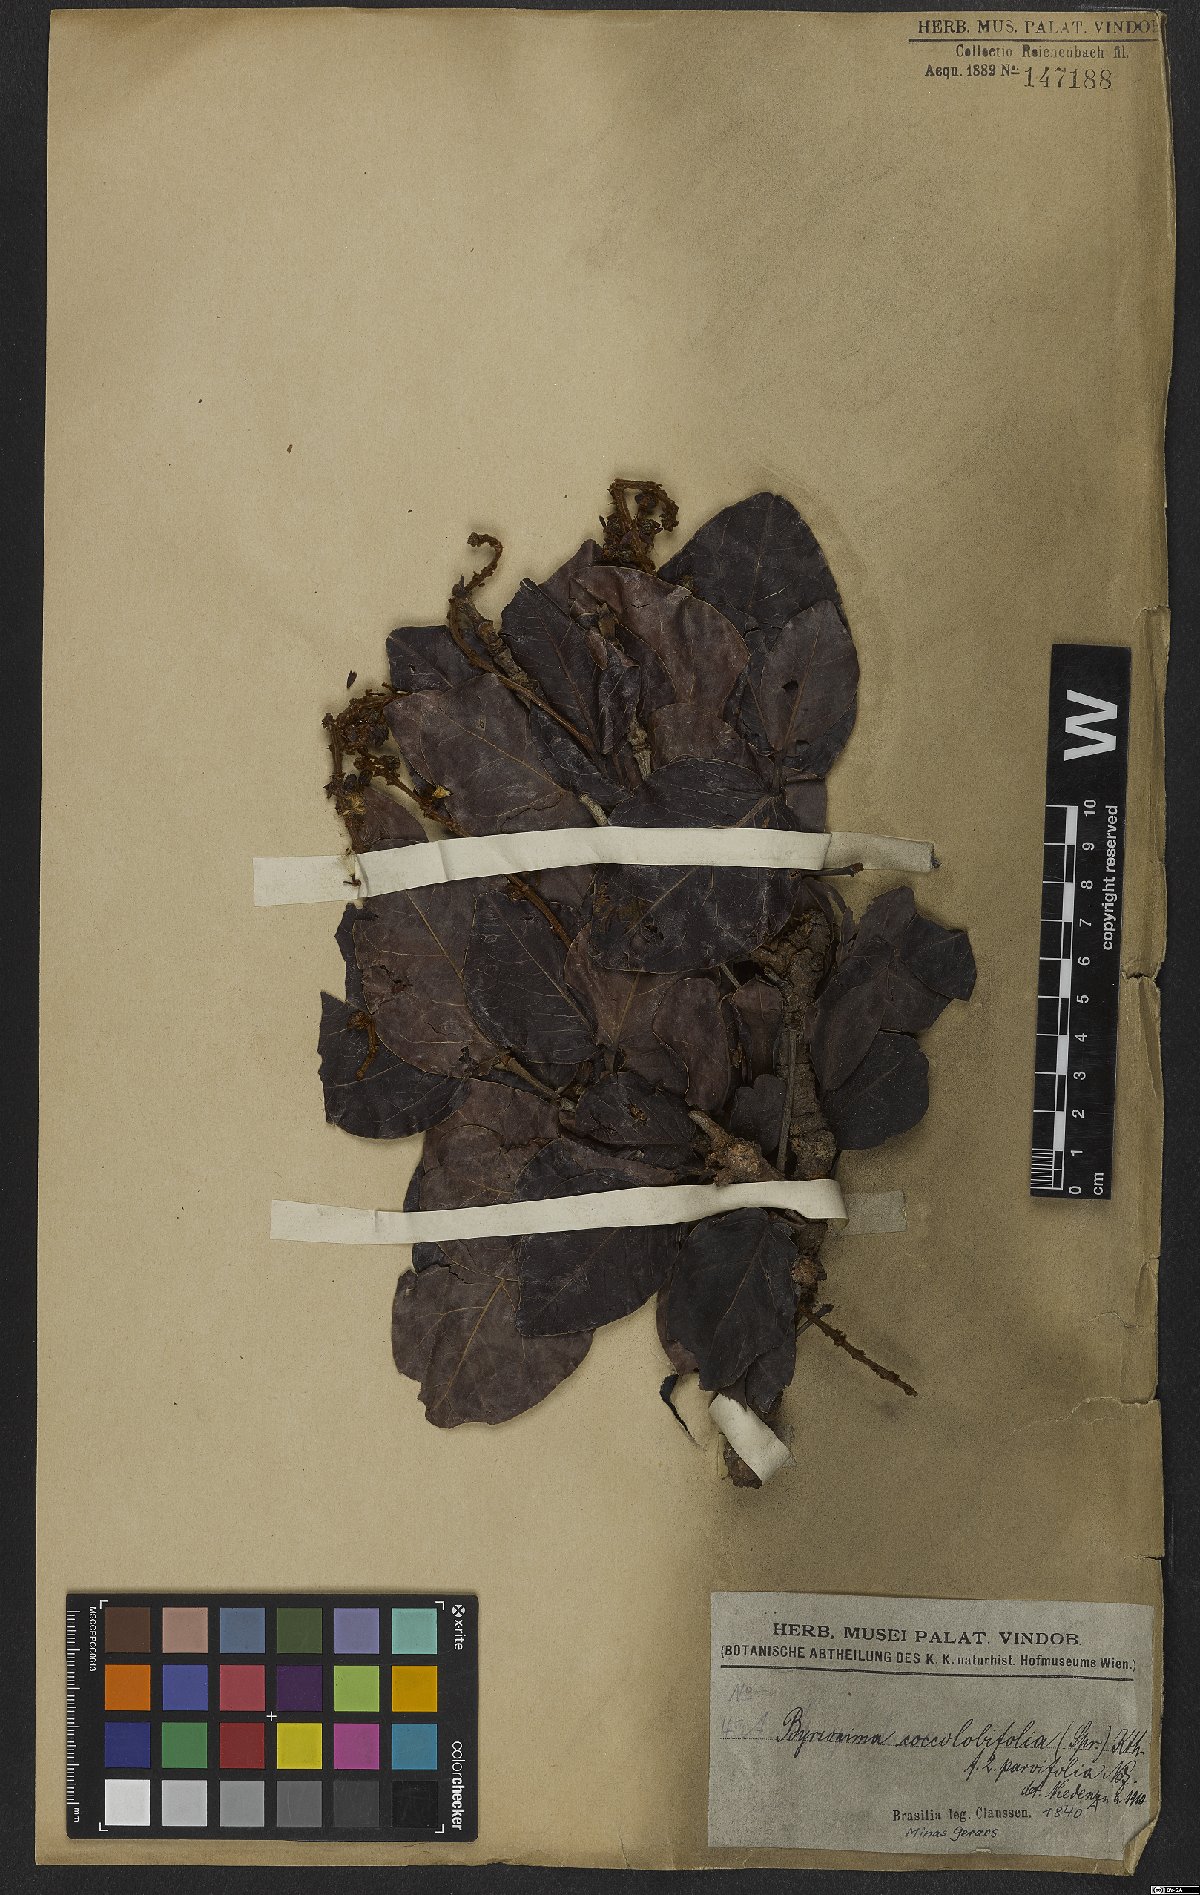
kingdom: Plantae
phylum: Tracheophyta
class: Magnoliopsida
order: Malpighiales
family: Malpighiaceae
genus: Byrsonima
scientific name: Byrsonima coccolobifolia
